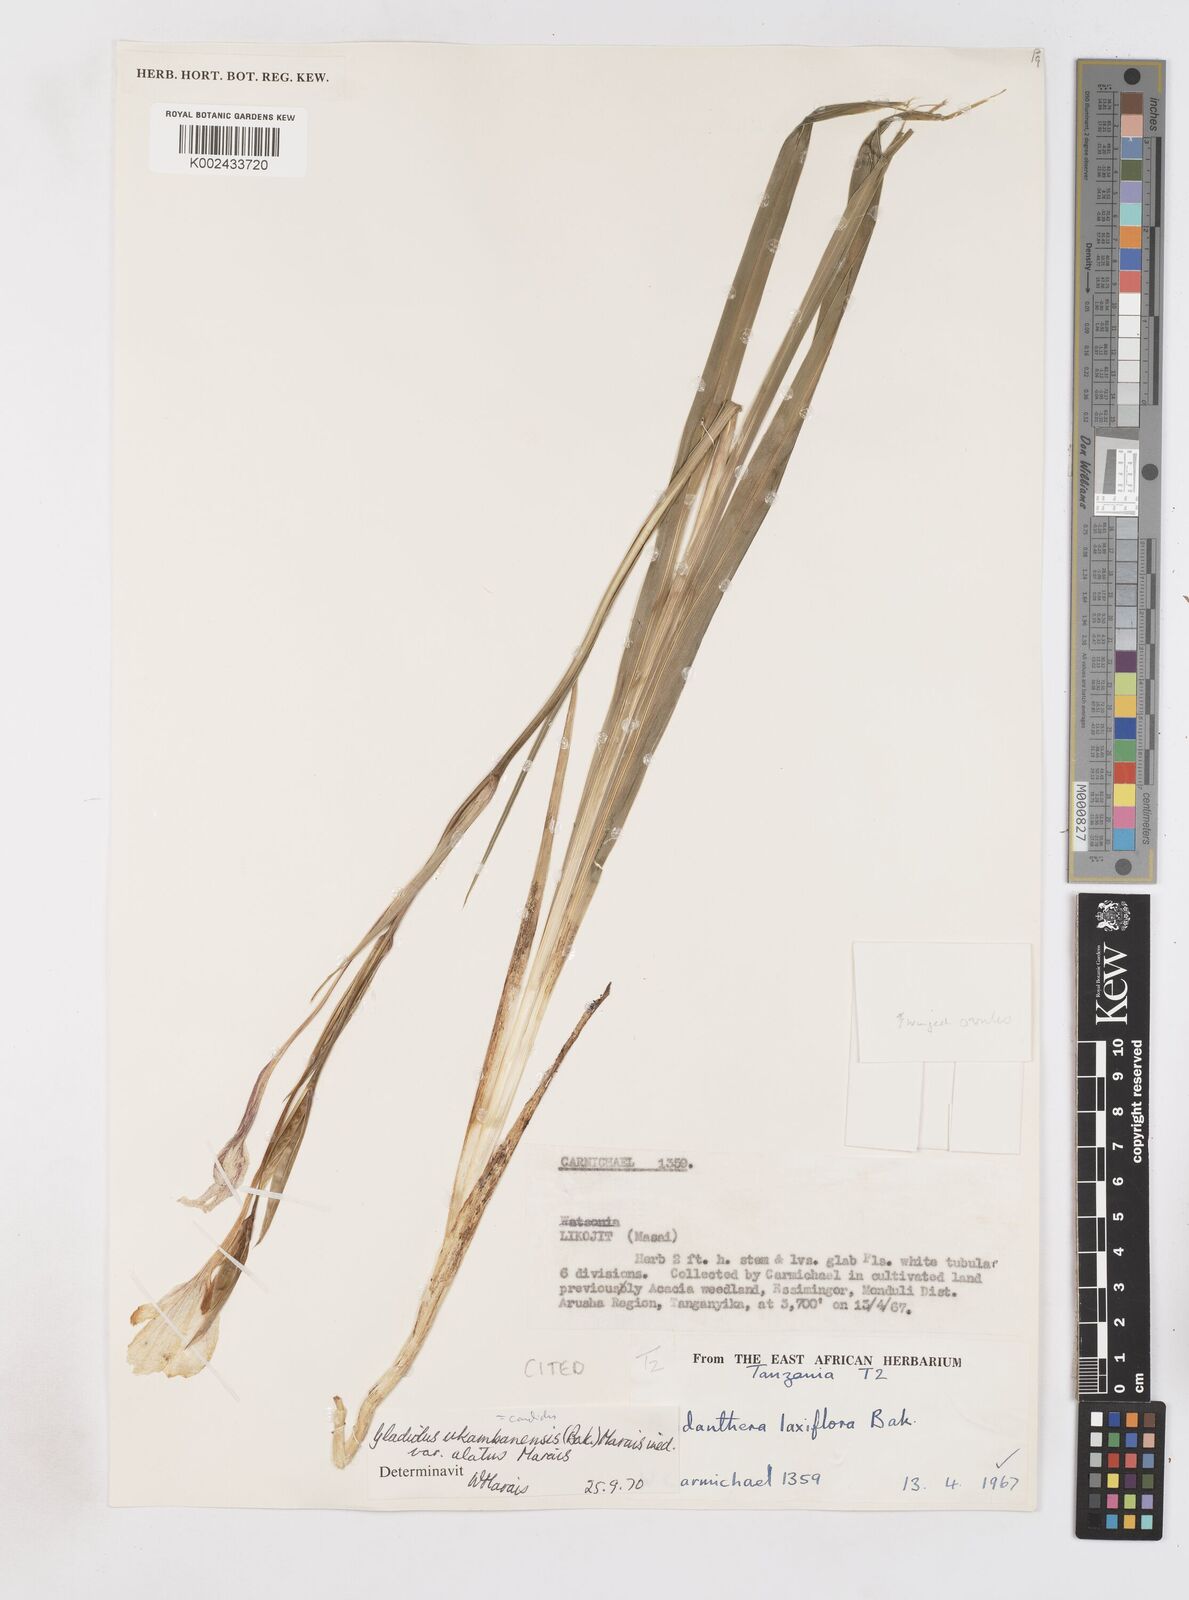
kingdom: Plantae
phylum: Tracheophyta
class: Liliopsida
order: Asparagales
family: Iridaceae
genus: Gladiolus
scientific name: Gladiolus candidus
